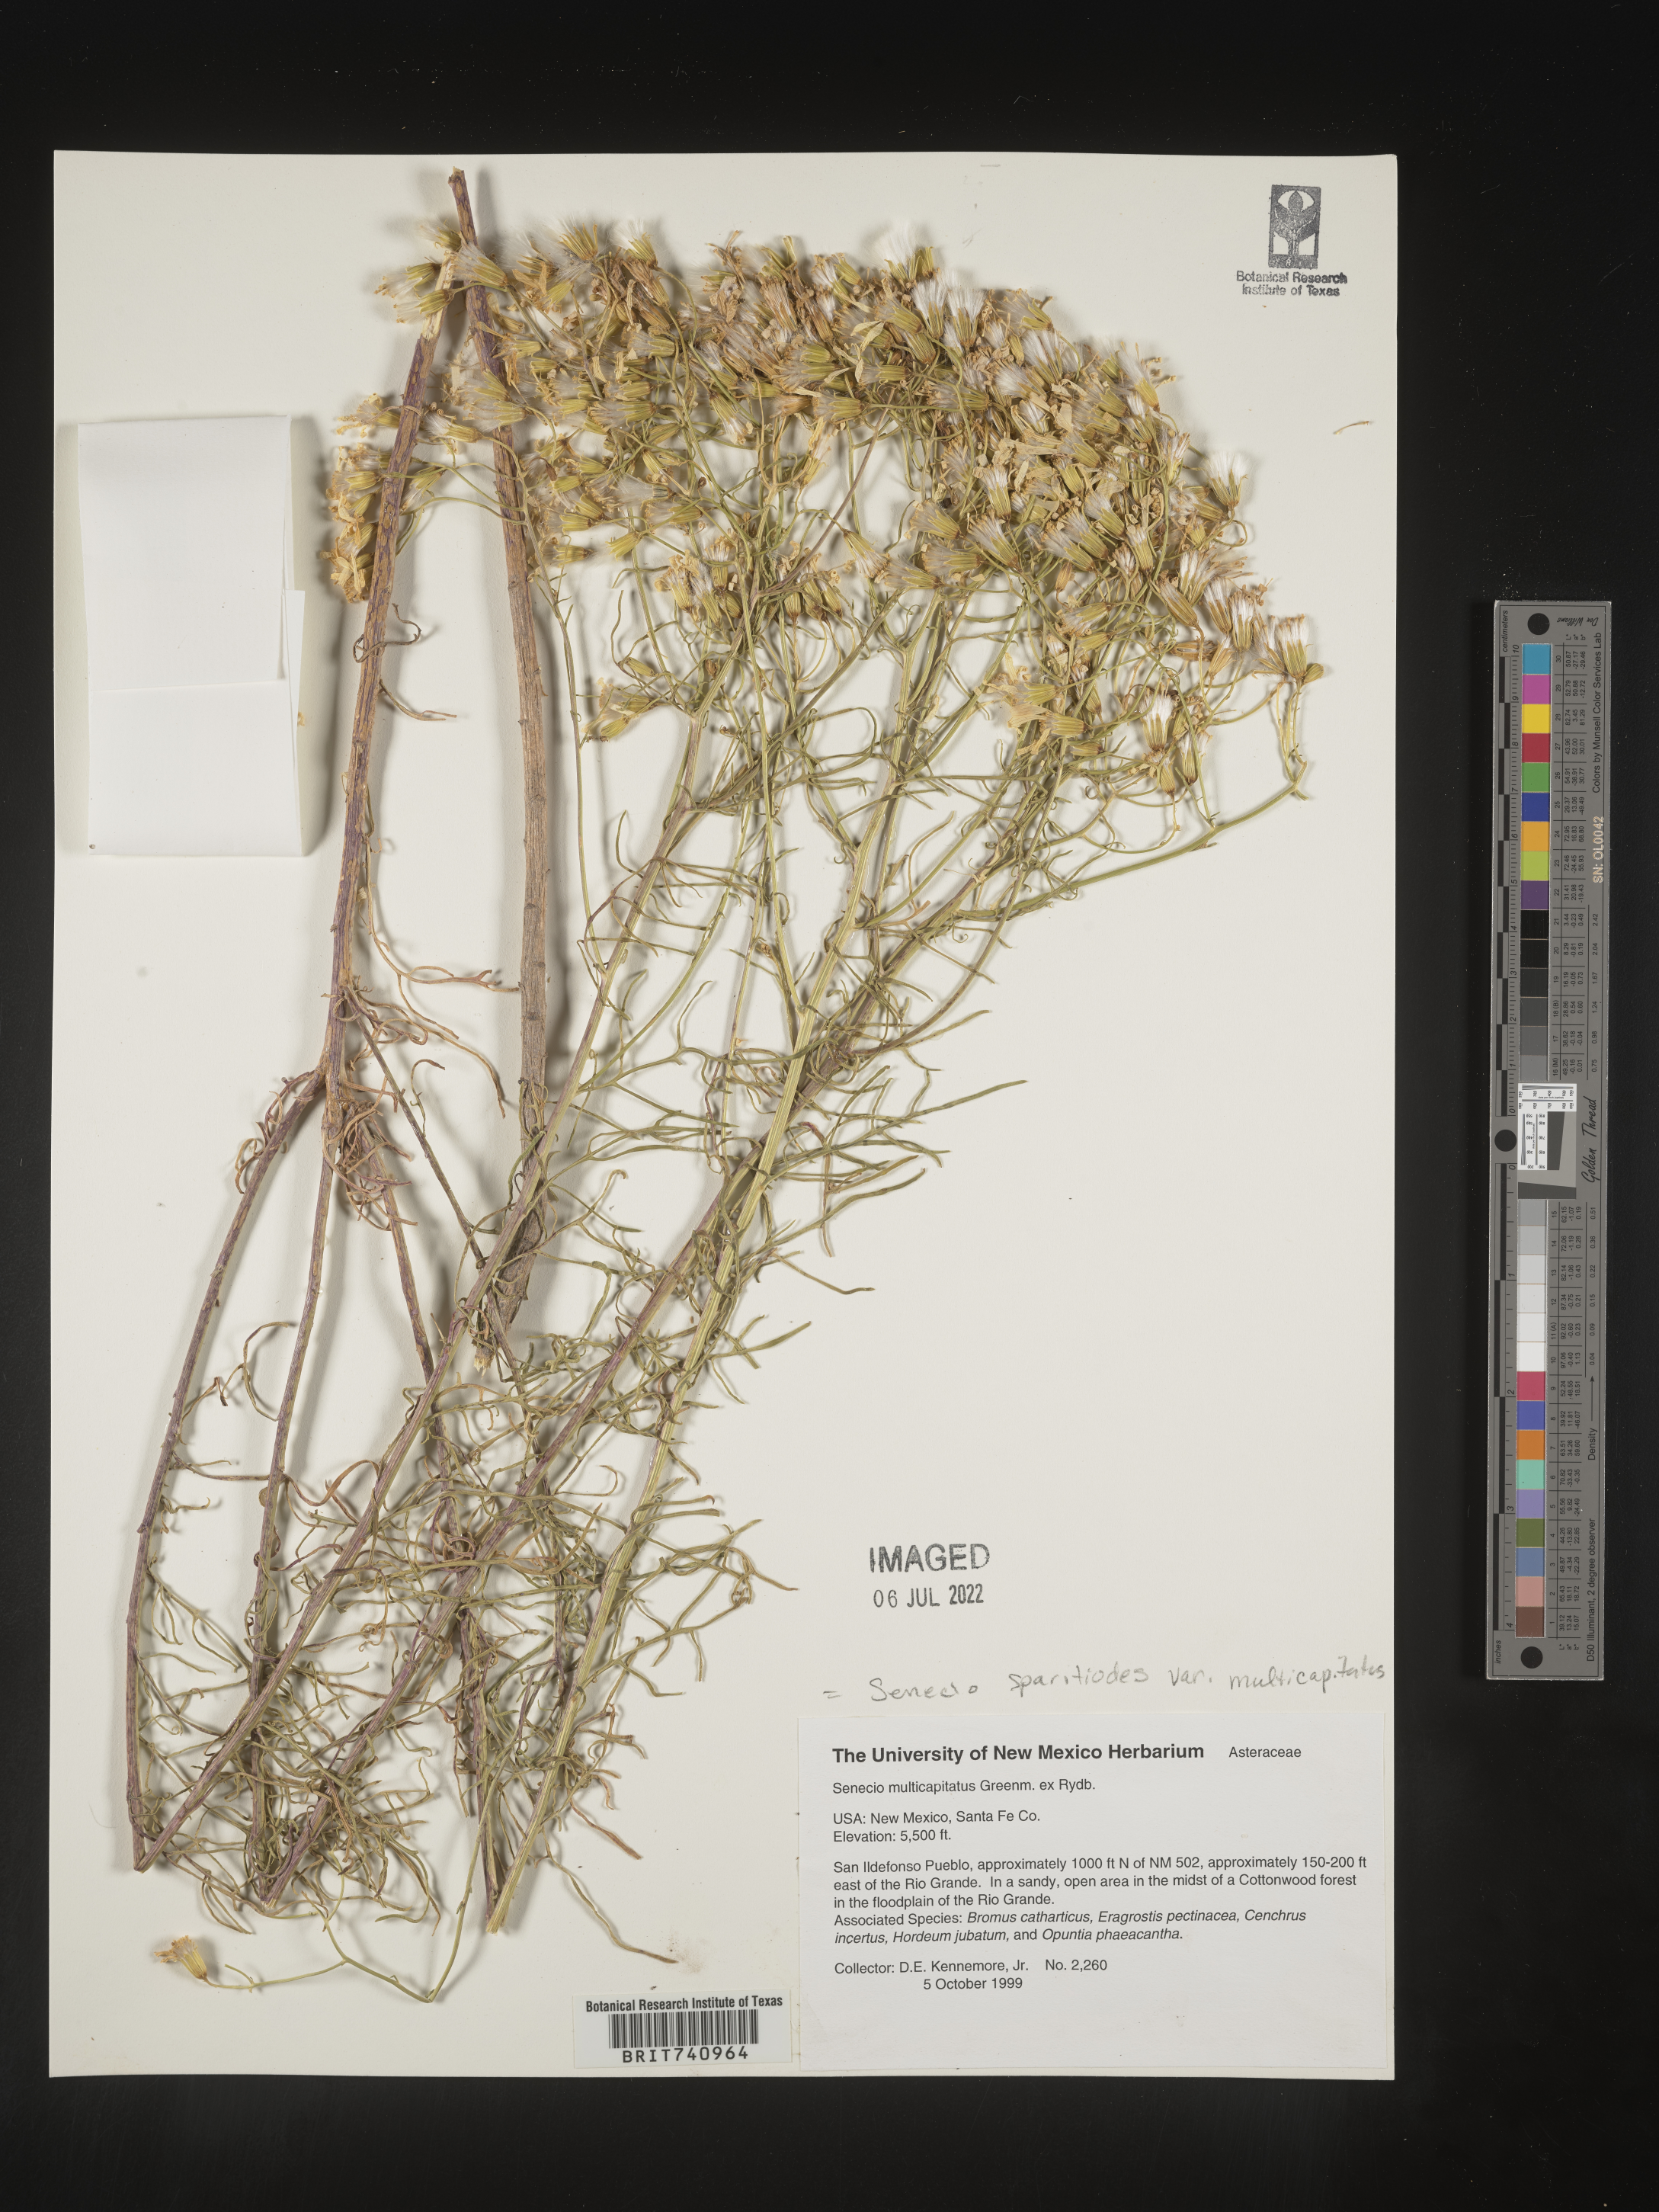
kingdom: Plantae
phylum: Tracheophyta
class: Magnoliopsida
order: Asterales
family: Asteraceae
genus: Senecio
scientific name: Senecio spartioides
